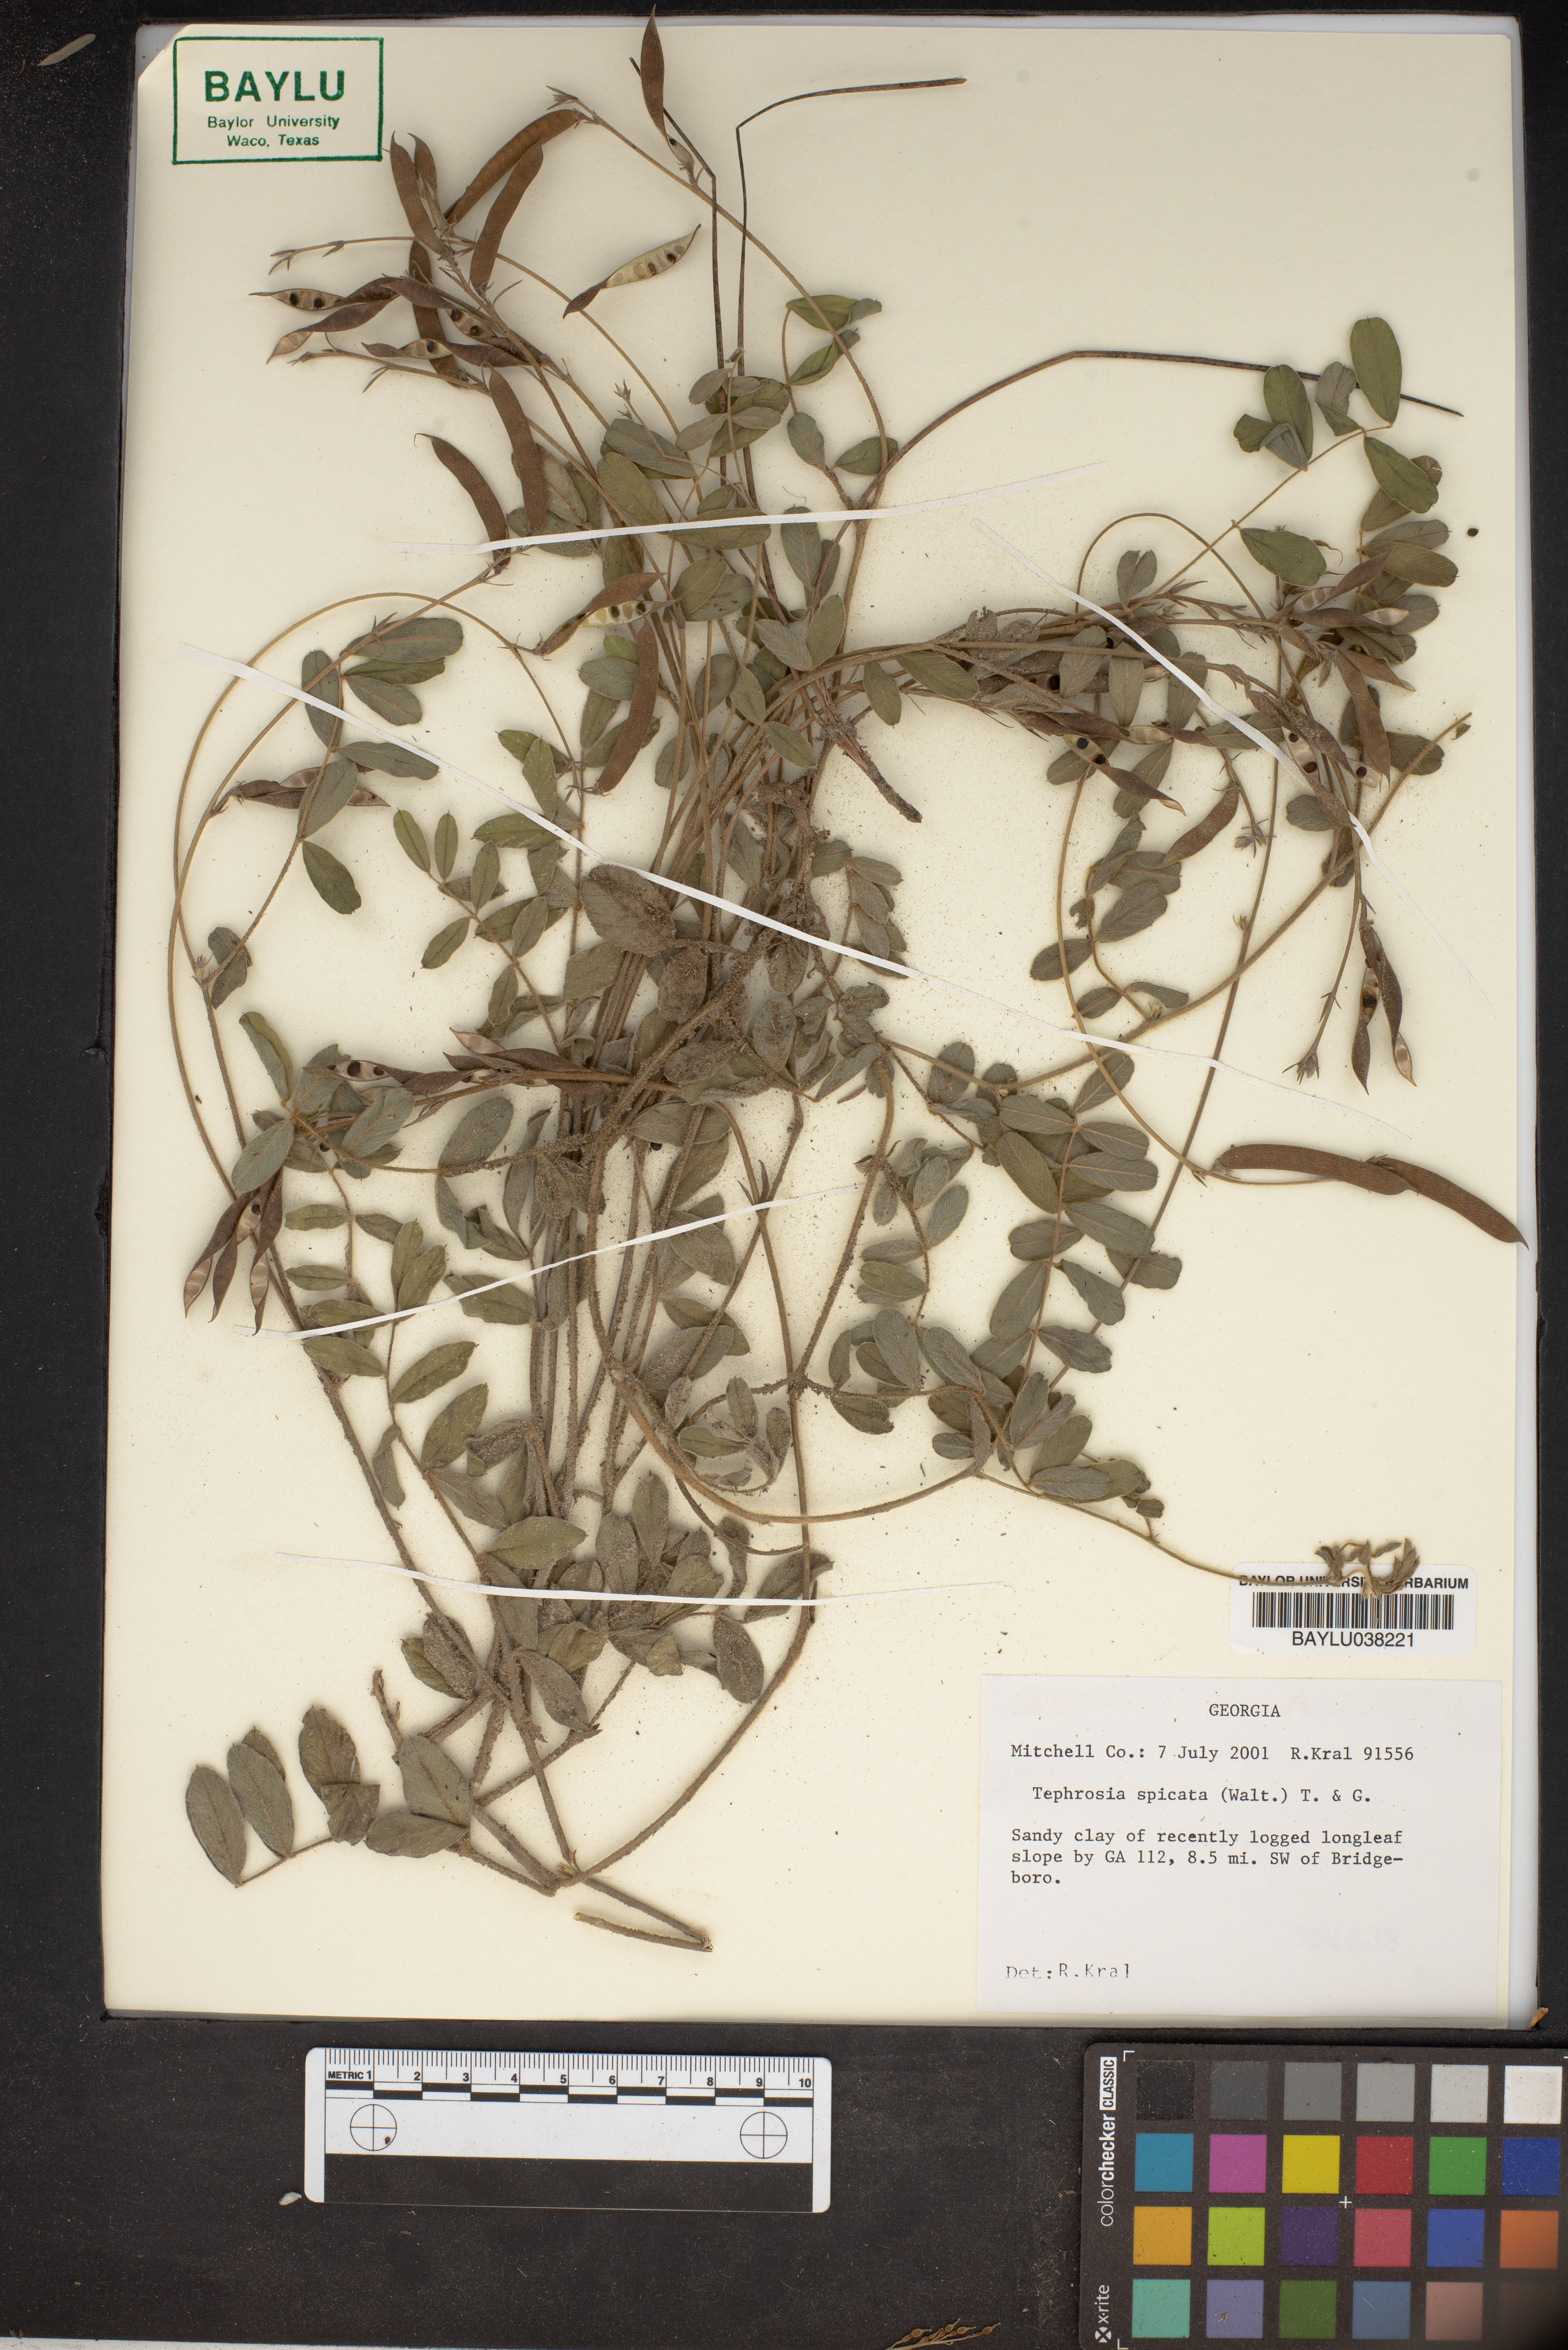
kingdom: Plantae
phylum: Tracheophyta
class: Magnoliopsida
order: Fabales
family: Fabaceae
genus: Tephrosia
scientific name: Tephrosia spicata
